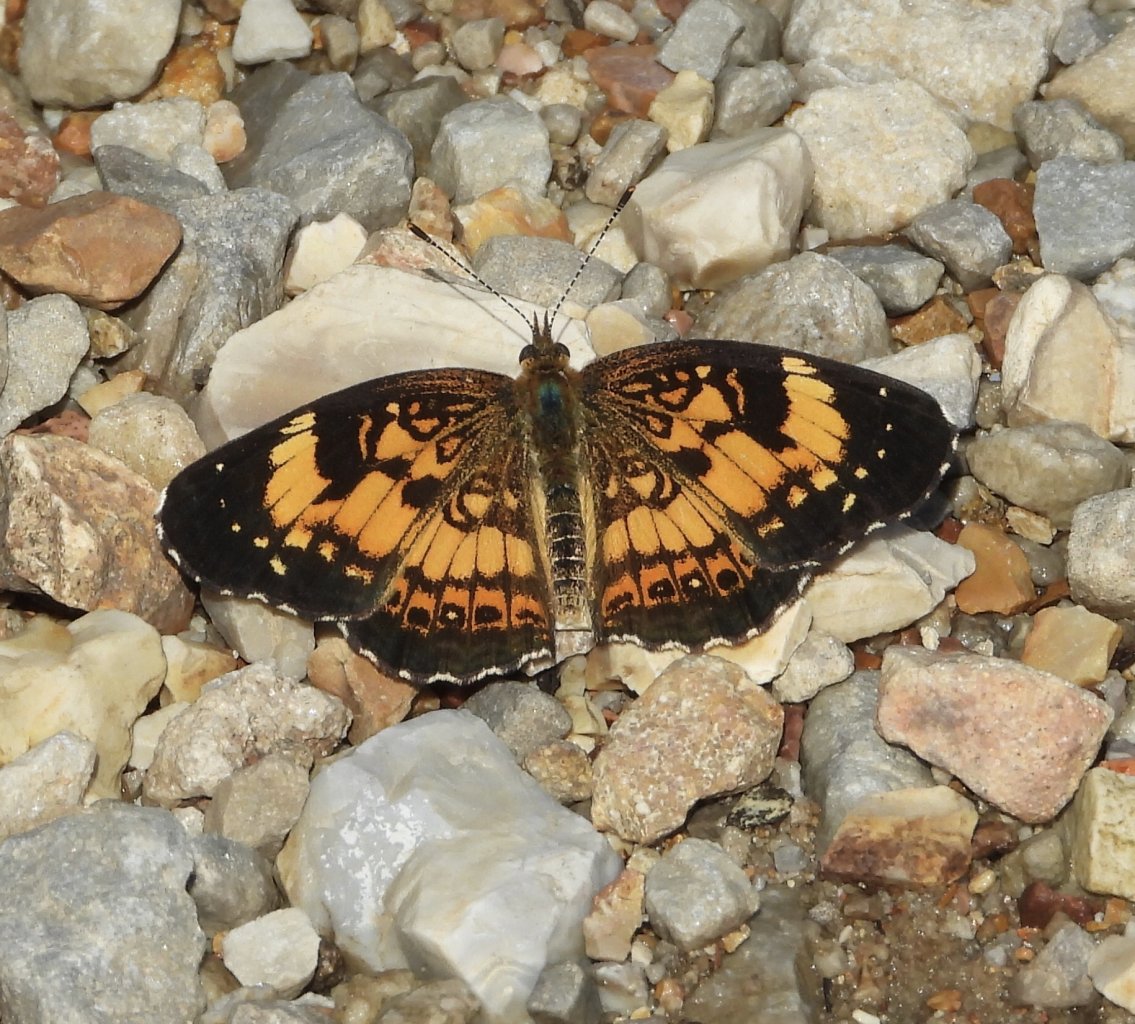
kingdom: Animalia
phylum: Arthropoda
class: Insecta
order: Lepidoptera
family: Nymphalidae
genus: Chlosyne
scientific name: Chlosyne nycteis
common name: Silvery Checkerspot
